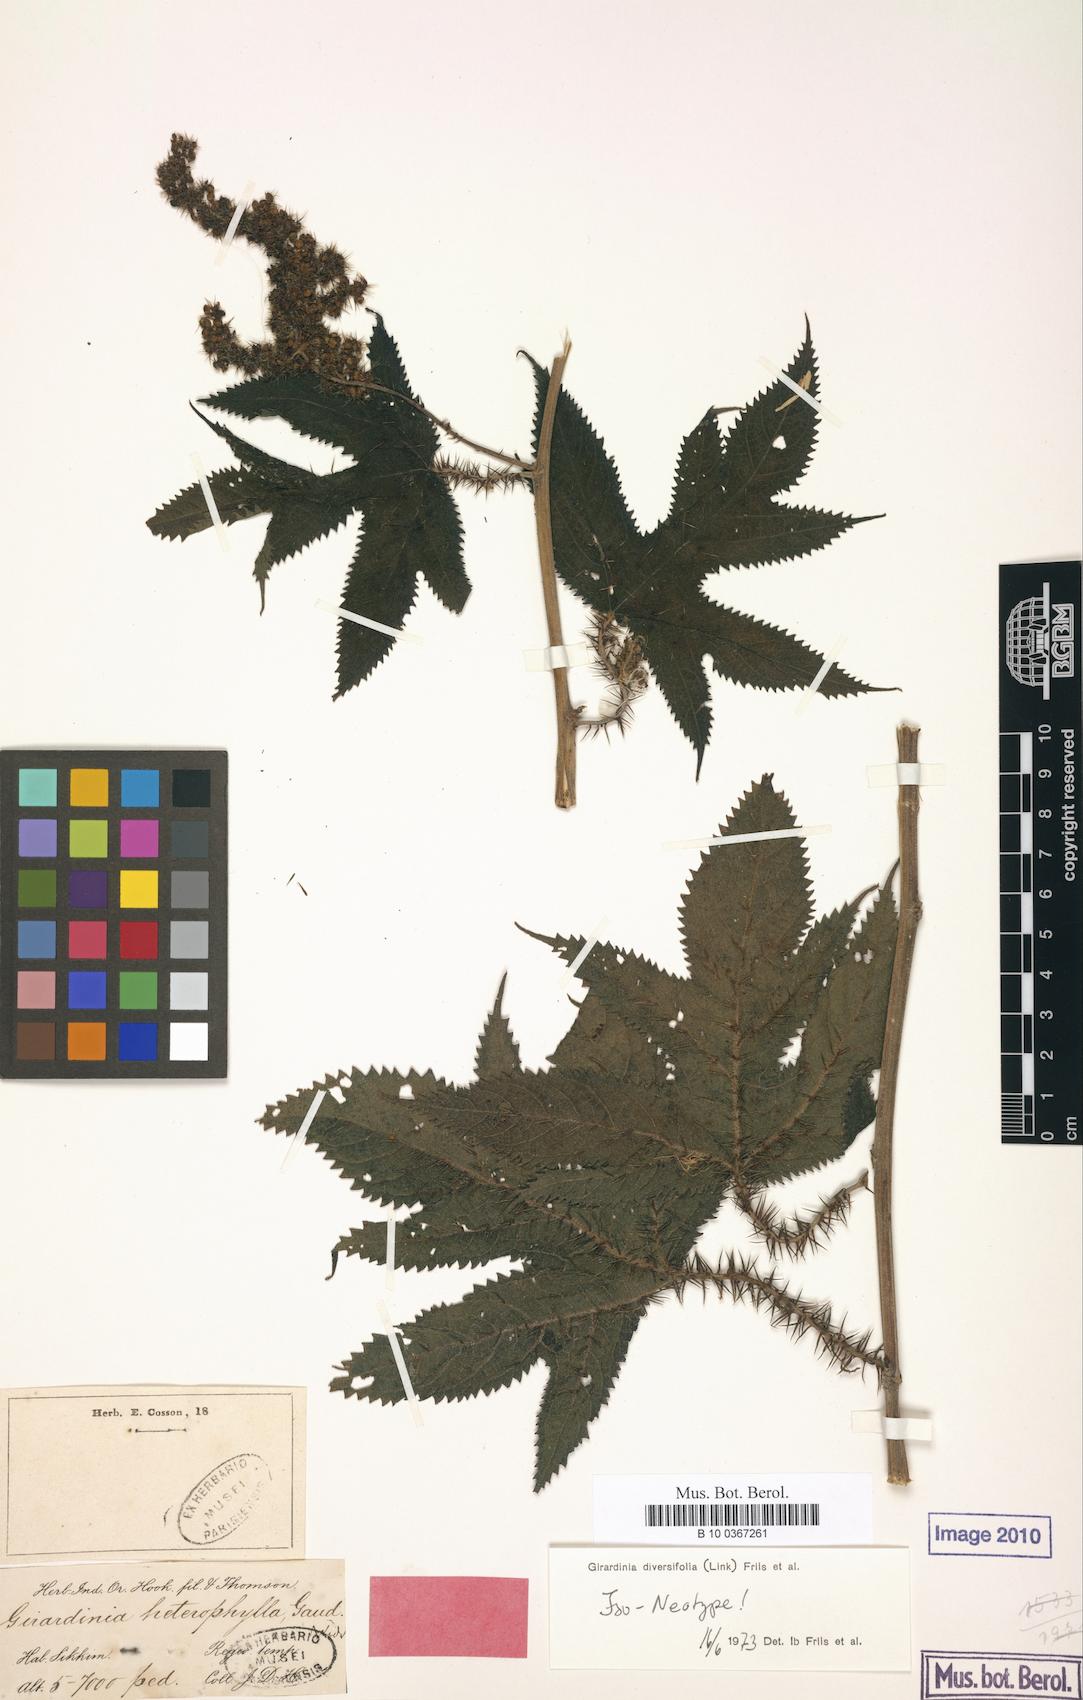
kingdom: Plantae
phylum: Tracheophyta
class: Magnoliopsida
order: Rosales
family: Urticaceae
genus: Girardinia
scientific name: Girardinia diversifolia
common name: Himalayan-nettle
